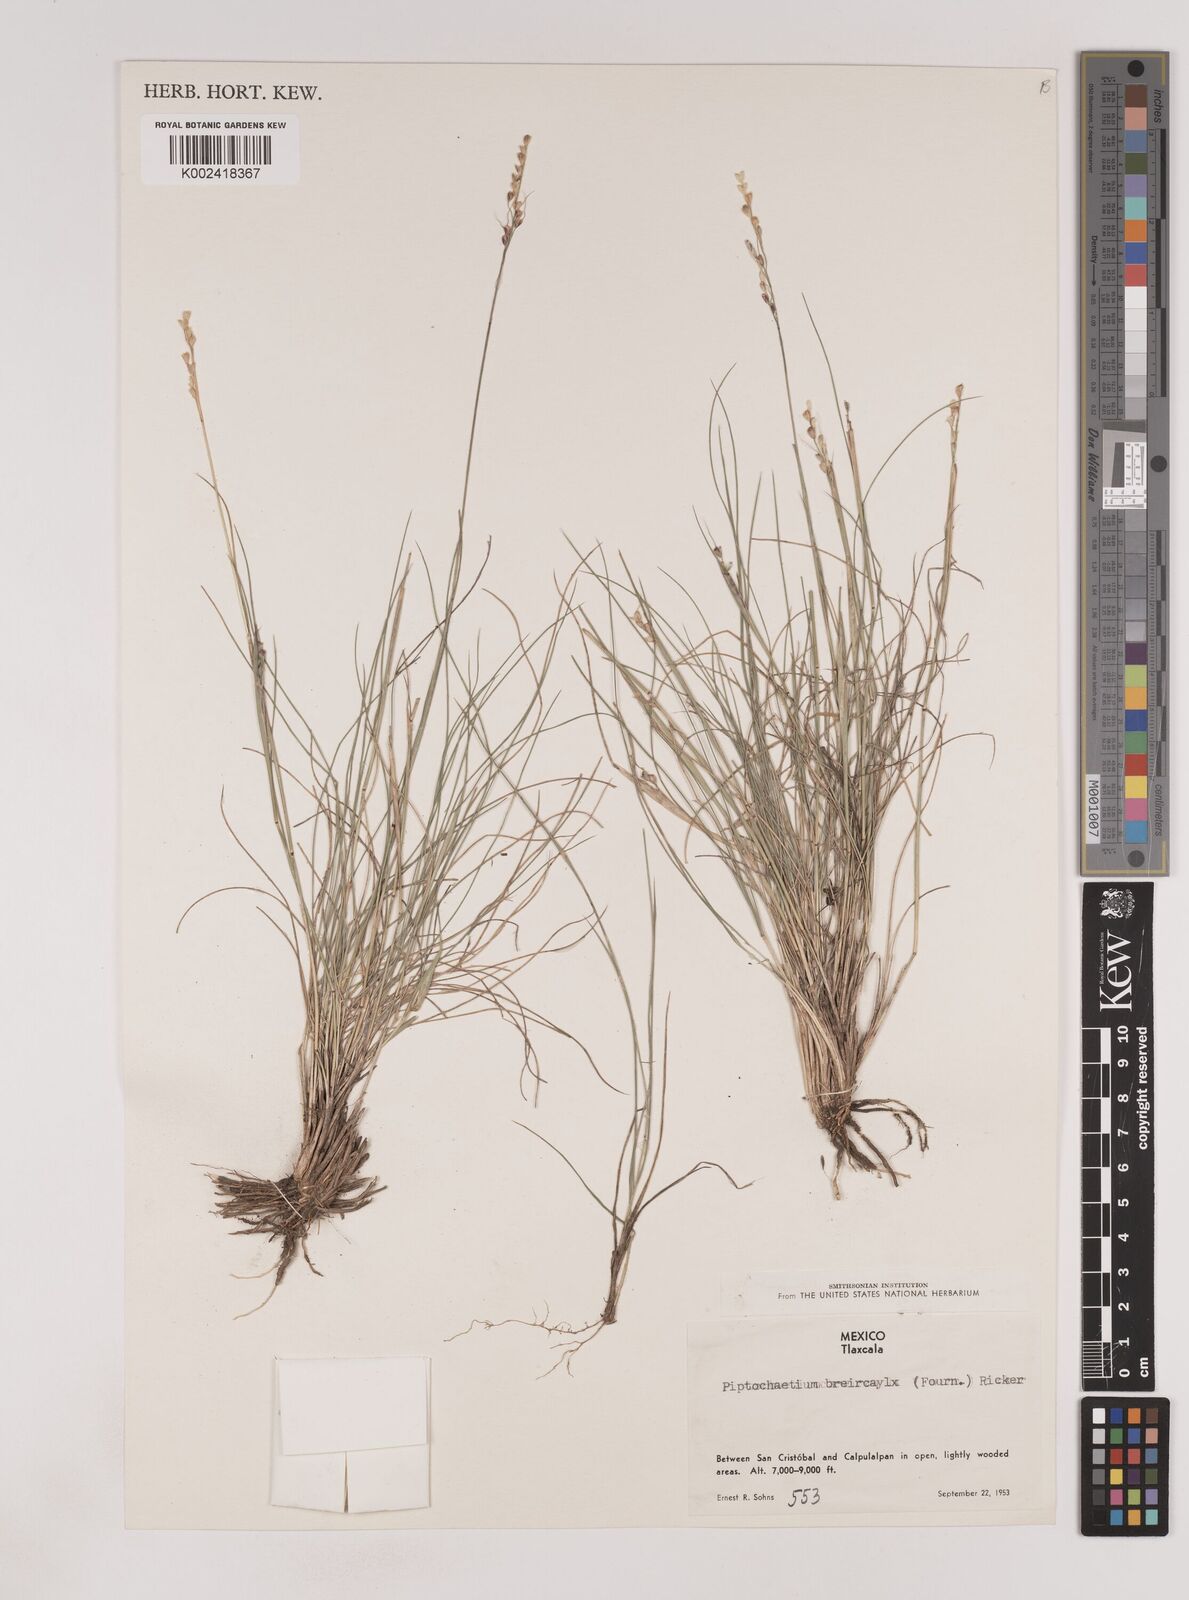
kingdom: Plantae
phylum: Tracheophyta
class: Liliopsida
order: Poales
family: Poaceae
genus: Piptochaetium
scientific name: Piptochaetium brevicalyx
